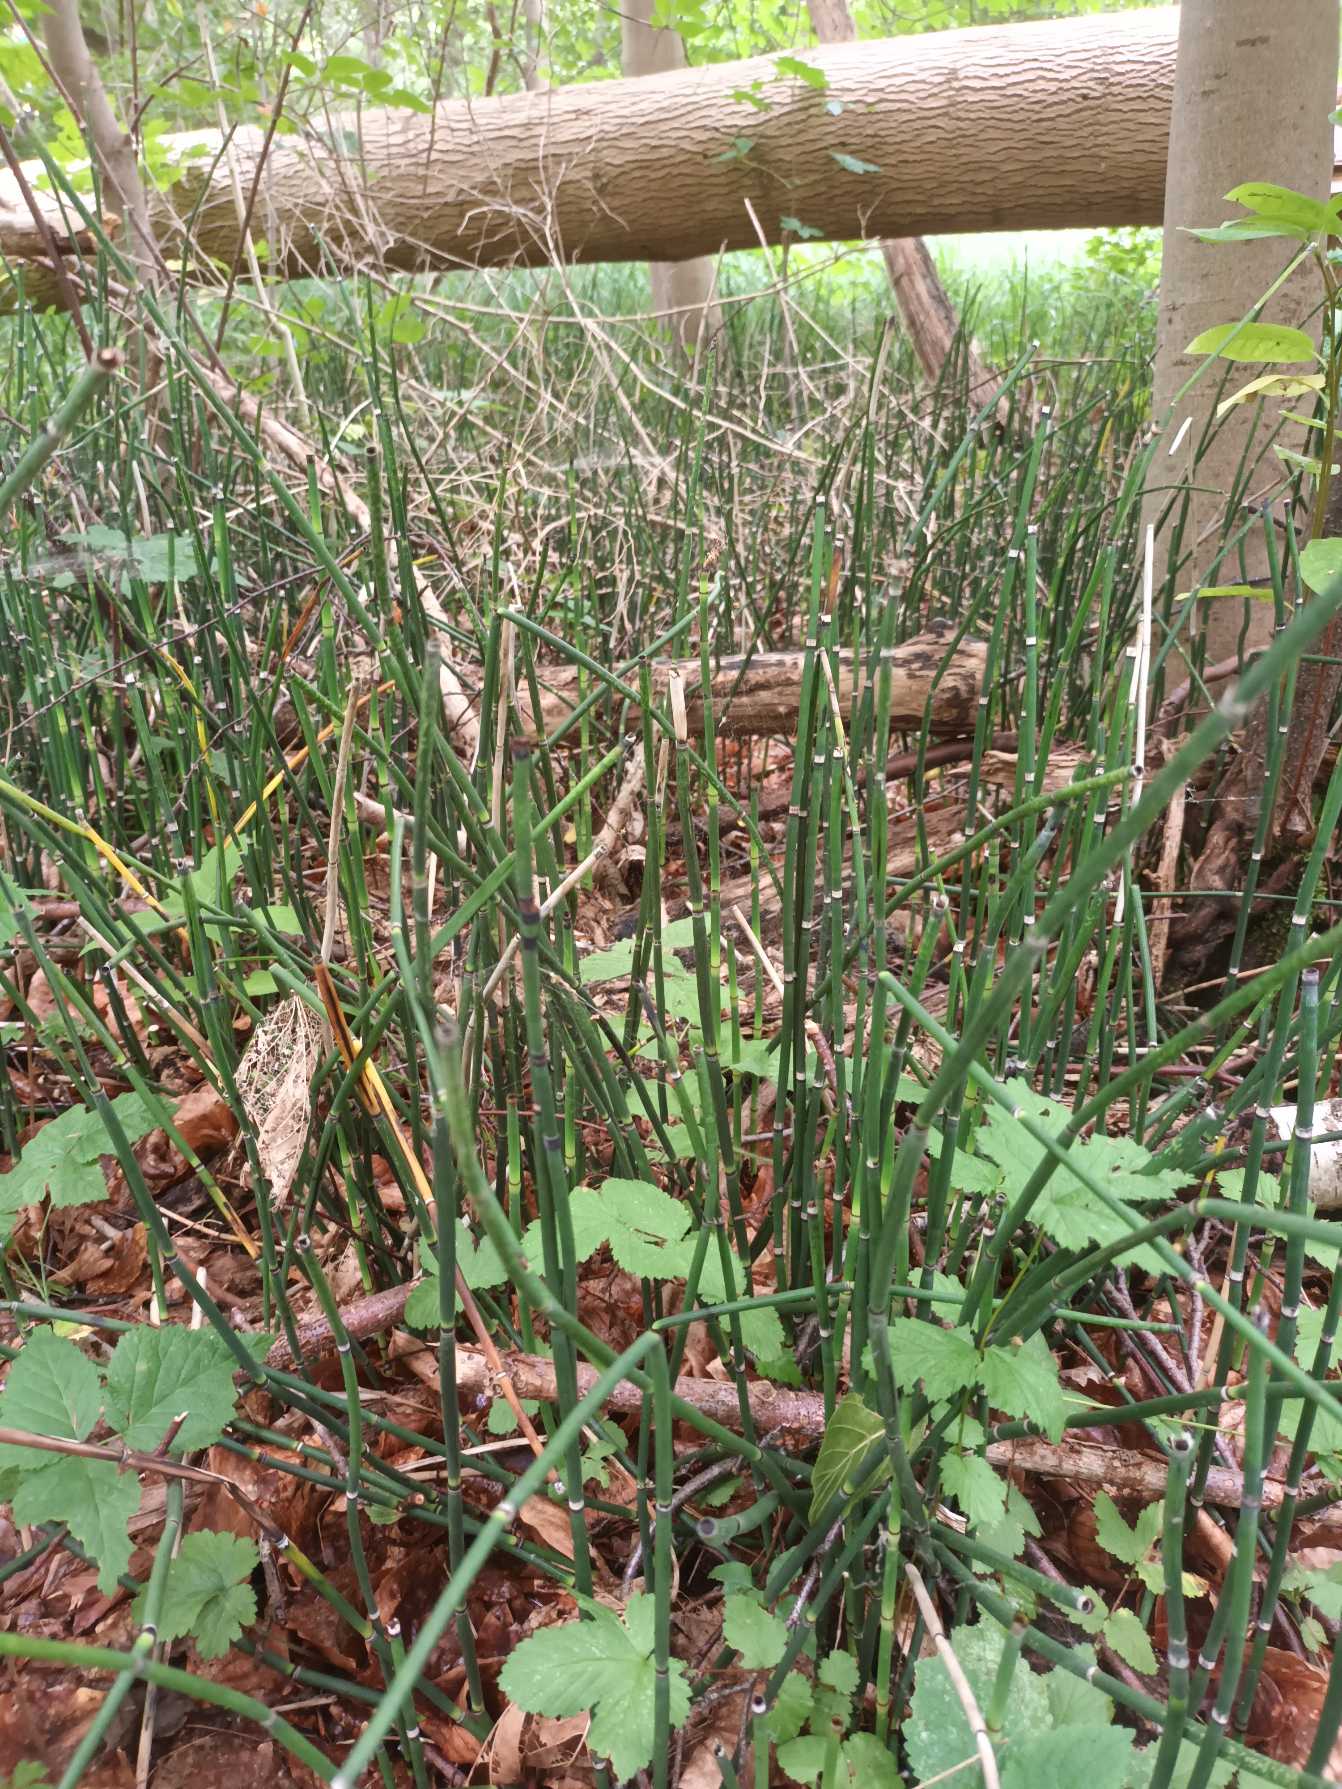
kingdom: Plantae
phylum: Tracheophyta
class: Polypodiopsida
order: Equisetales
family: Equisetaceae
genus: Equisetum
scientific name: Equisetum hyemale
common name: Skavgræs
